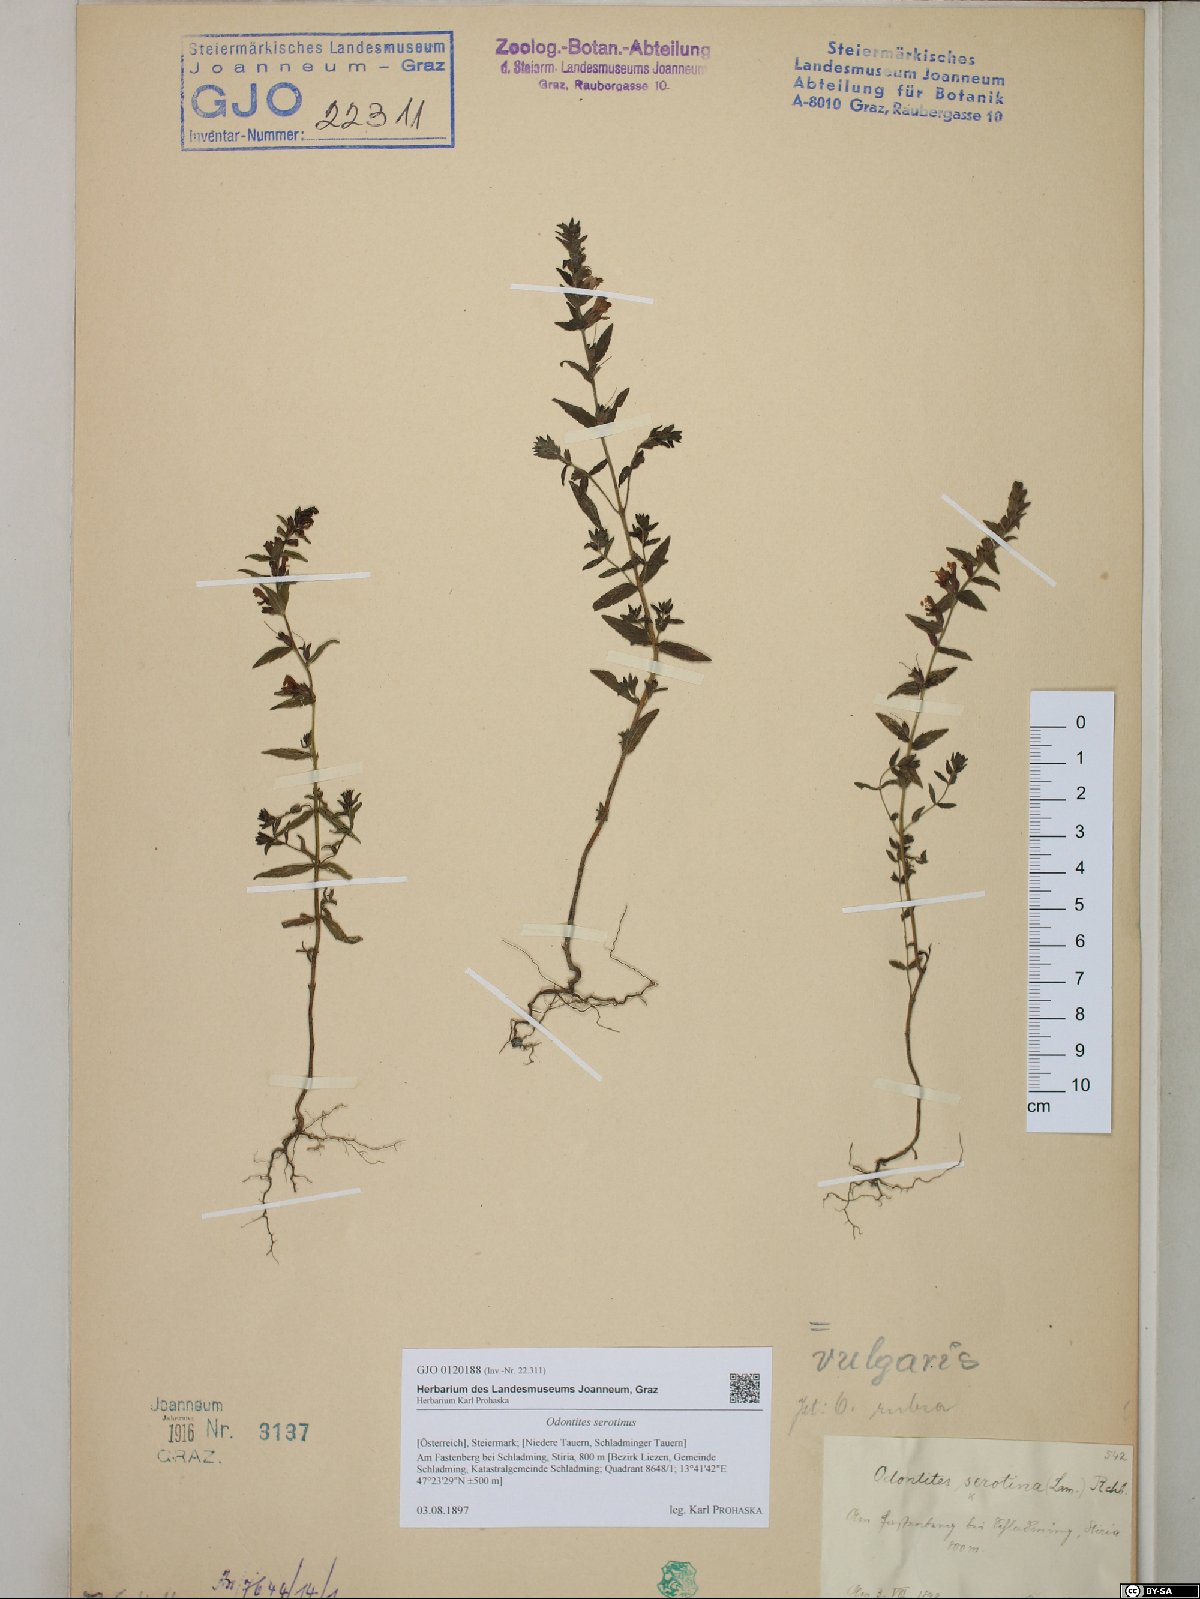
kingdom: Plantae
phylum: Tracheophyta
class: Magnoliopsida
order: Lamiales
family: Orobanchaceae
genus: Odontites
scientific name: Odontites vulgaris
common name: Broomrape
